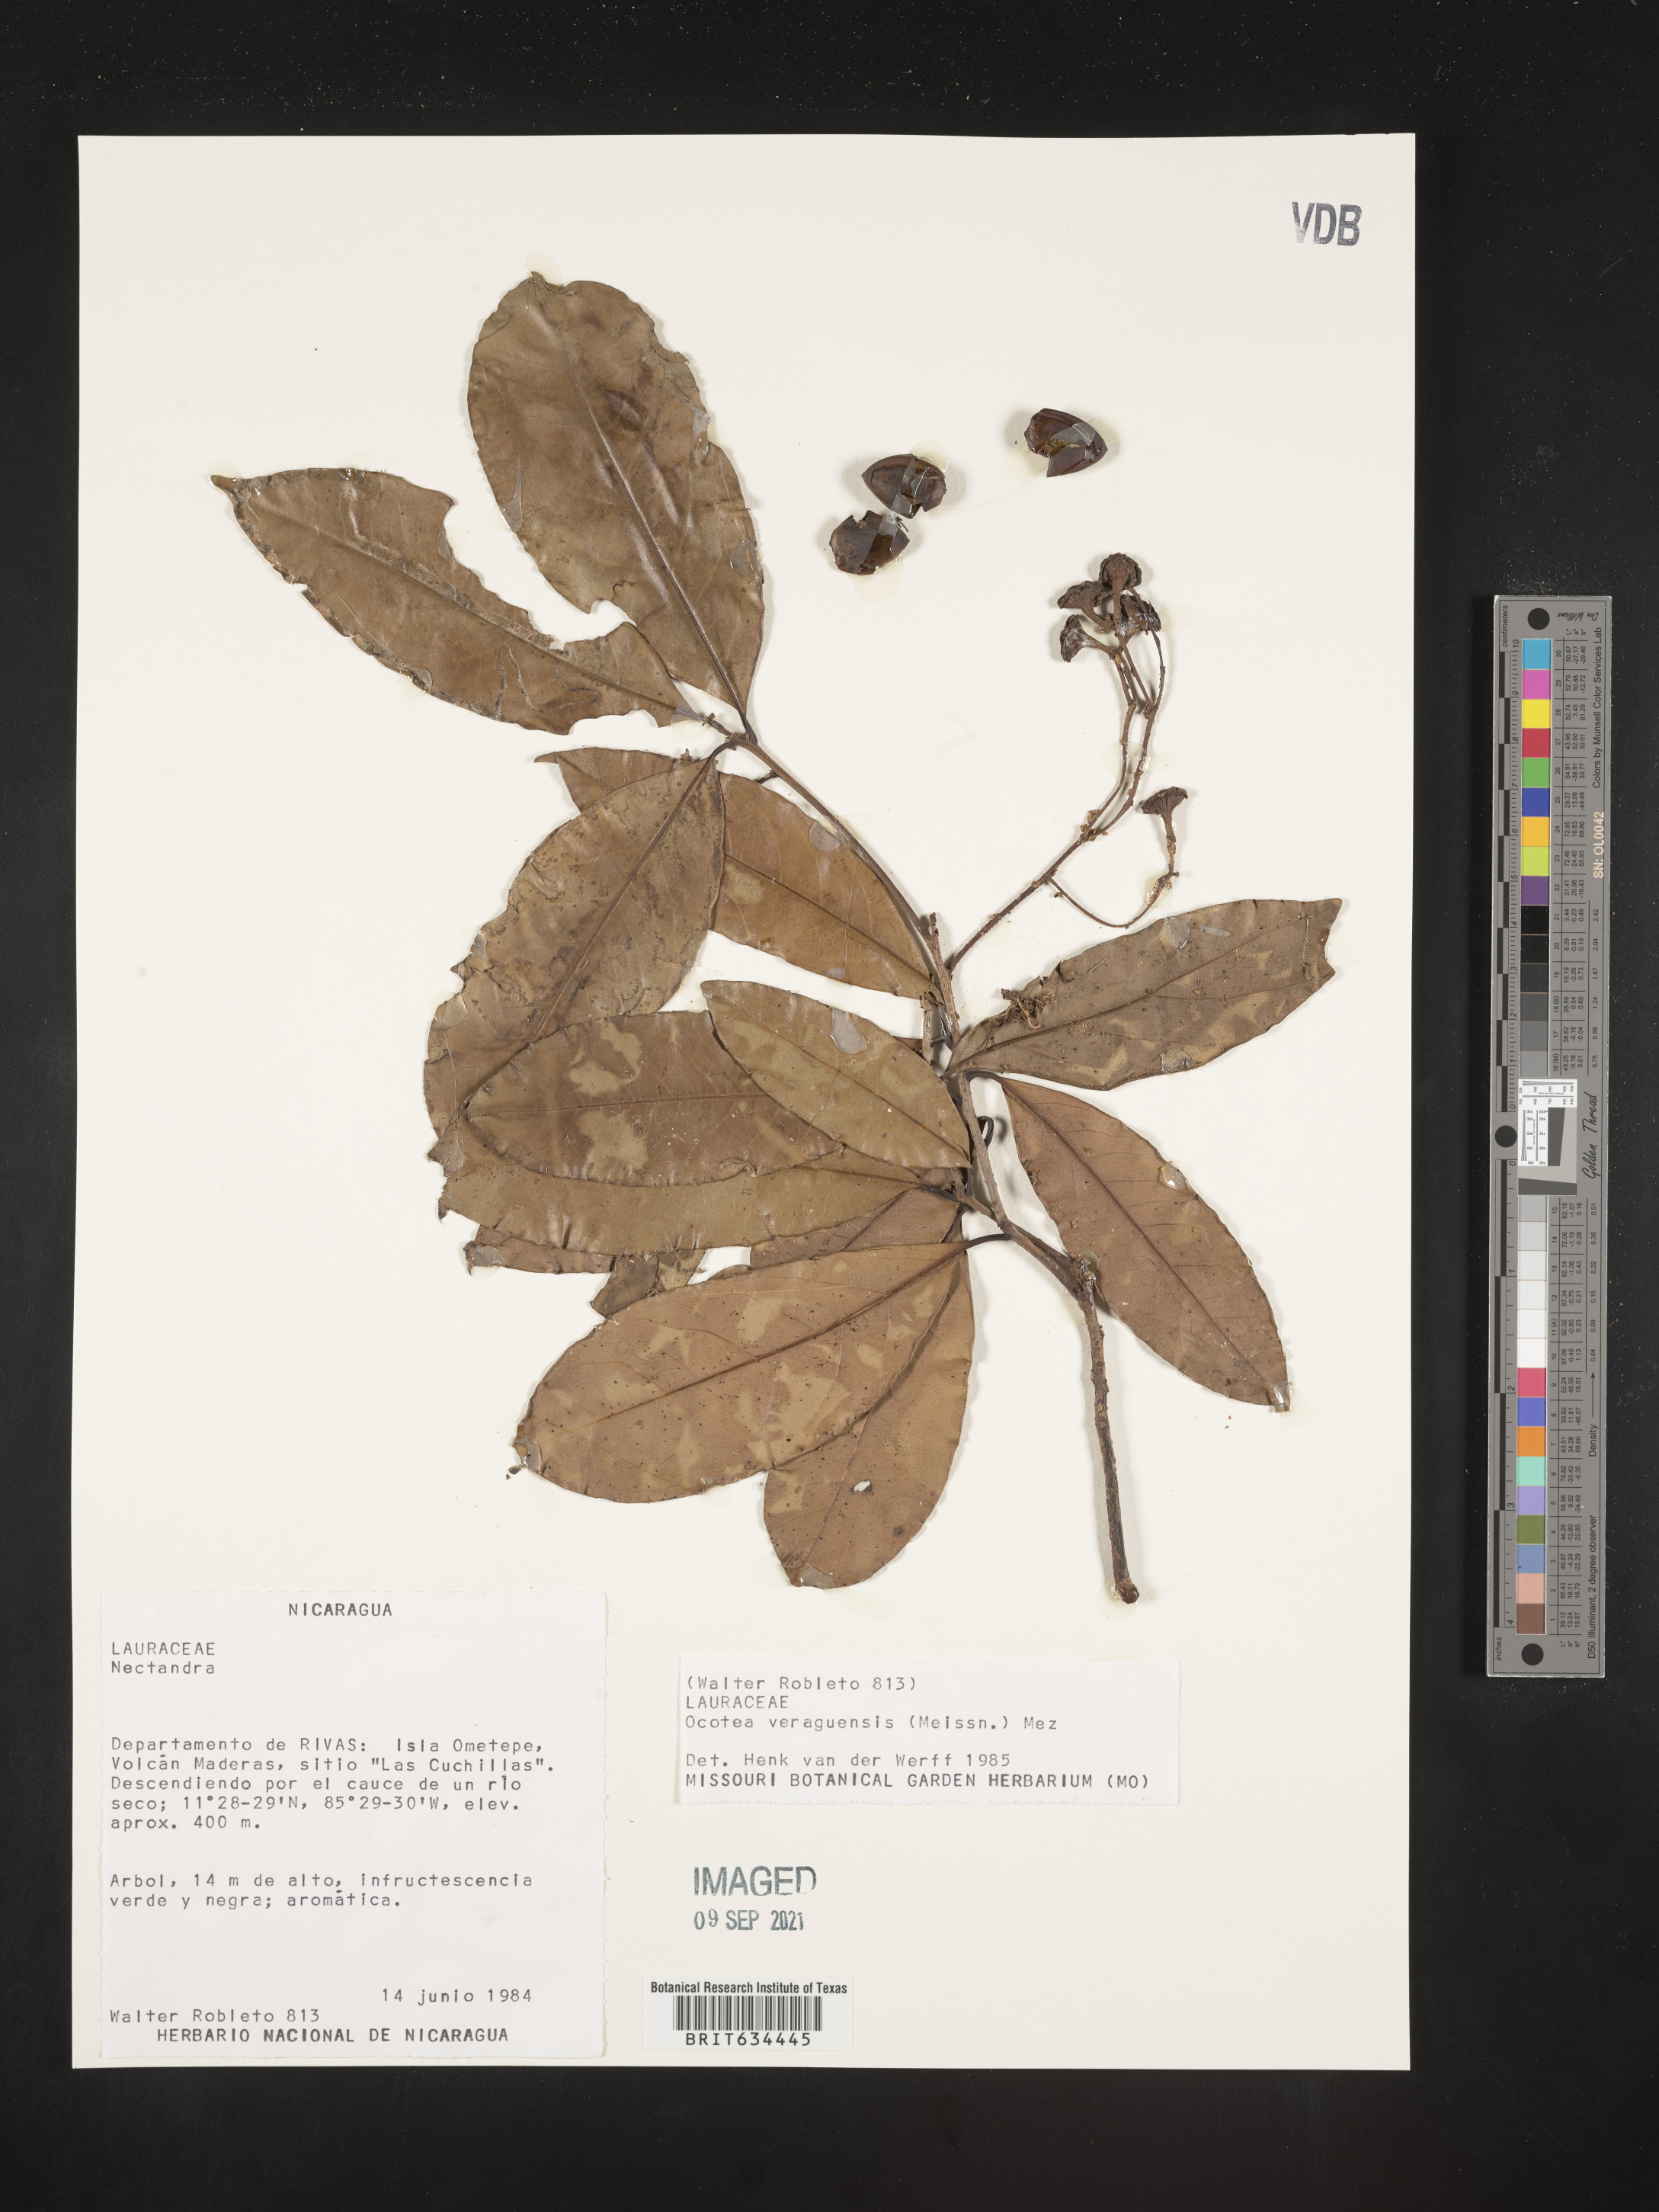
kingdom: Plantae
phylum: Tracheophyta
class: Magnoliopsida
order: Laurales
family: Lauraceae
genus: Ocotea
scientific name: Ocotea
